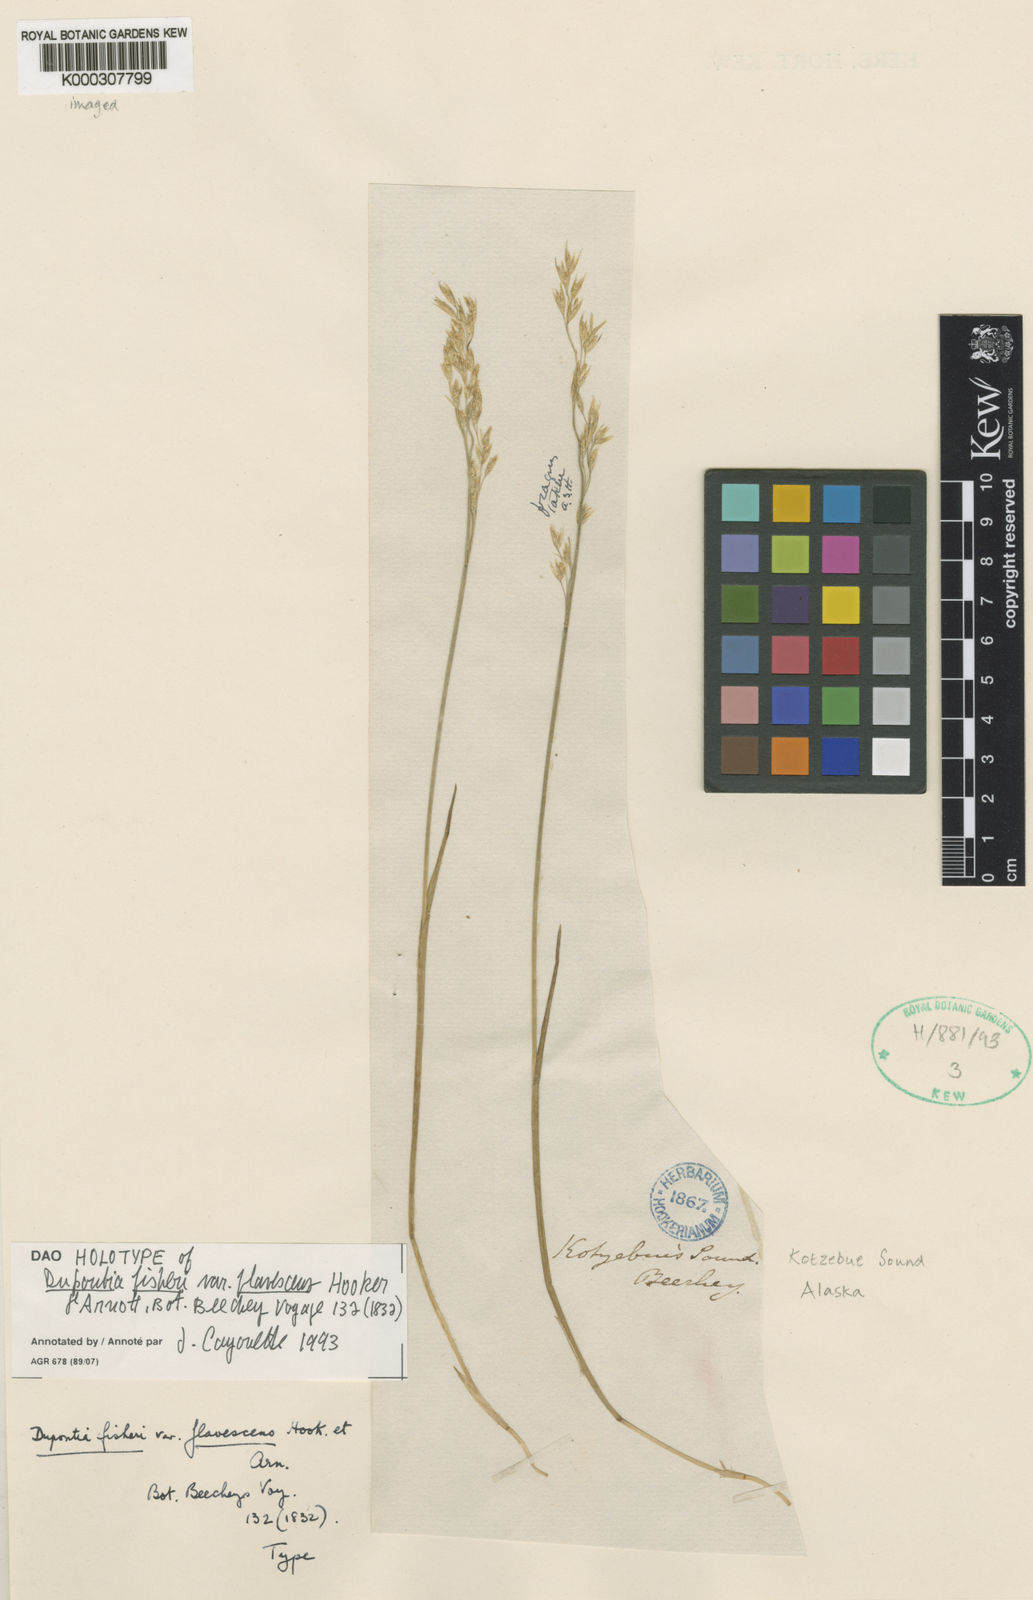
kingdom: Plantae
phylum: Tracheophyta
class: Liliopsida
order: Poales
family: Poaceae
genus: Dupontia
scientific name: Dupontia fisheri
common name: Tundra grass
